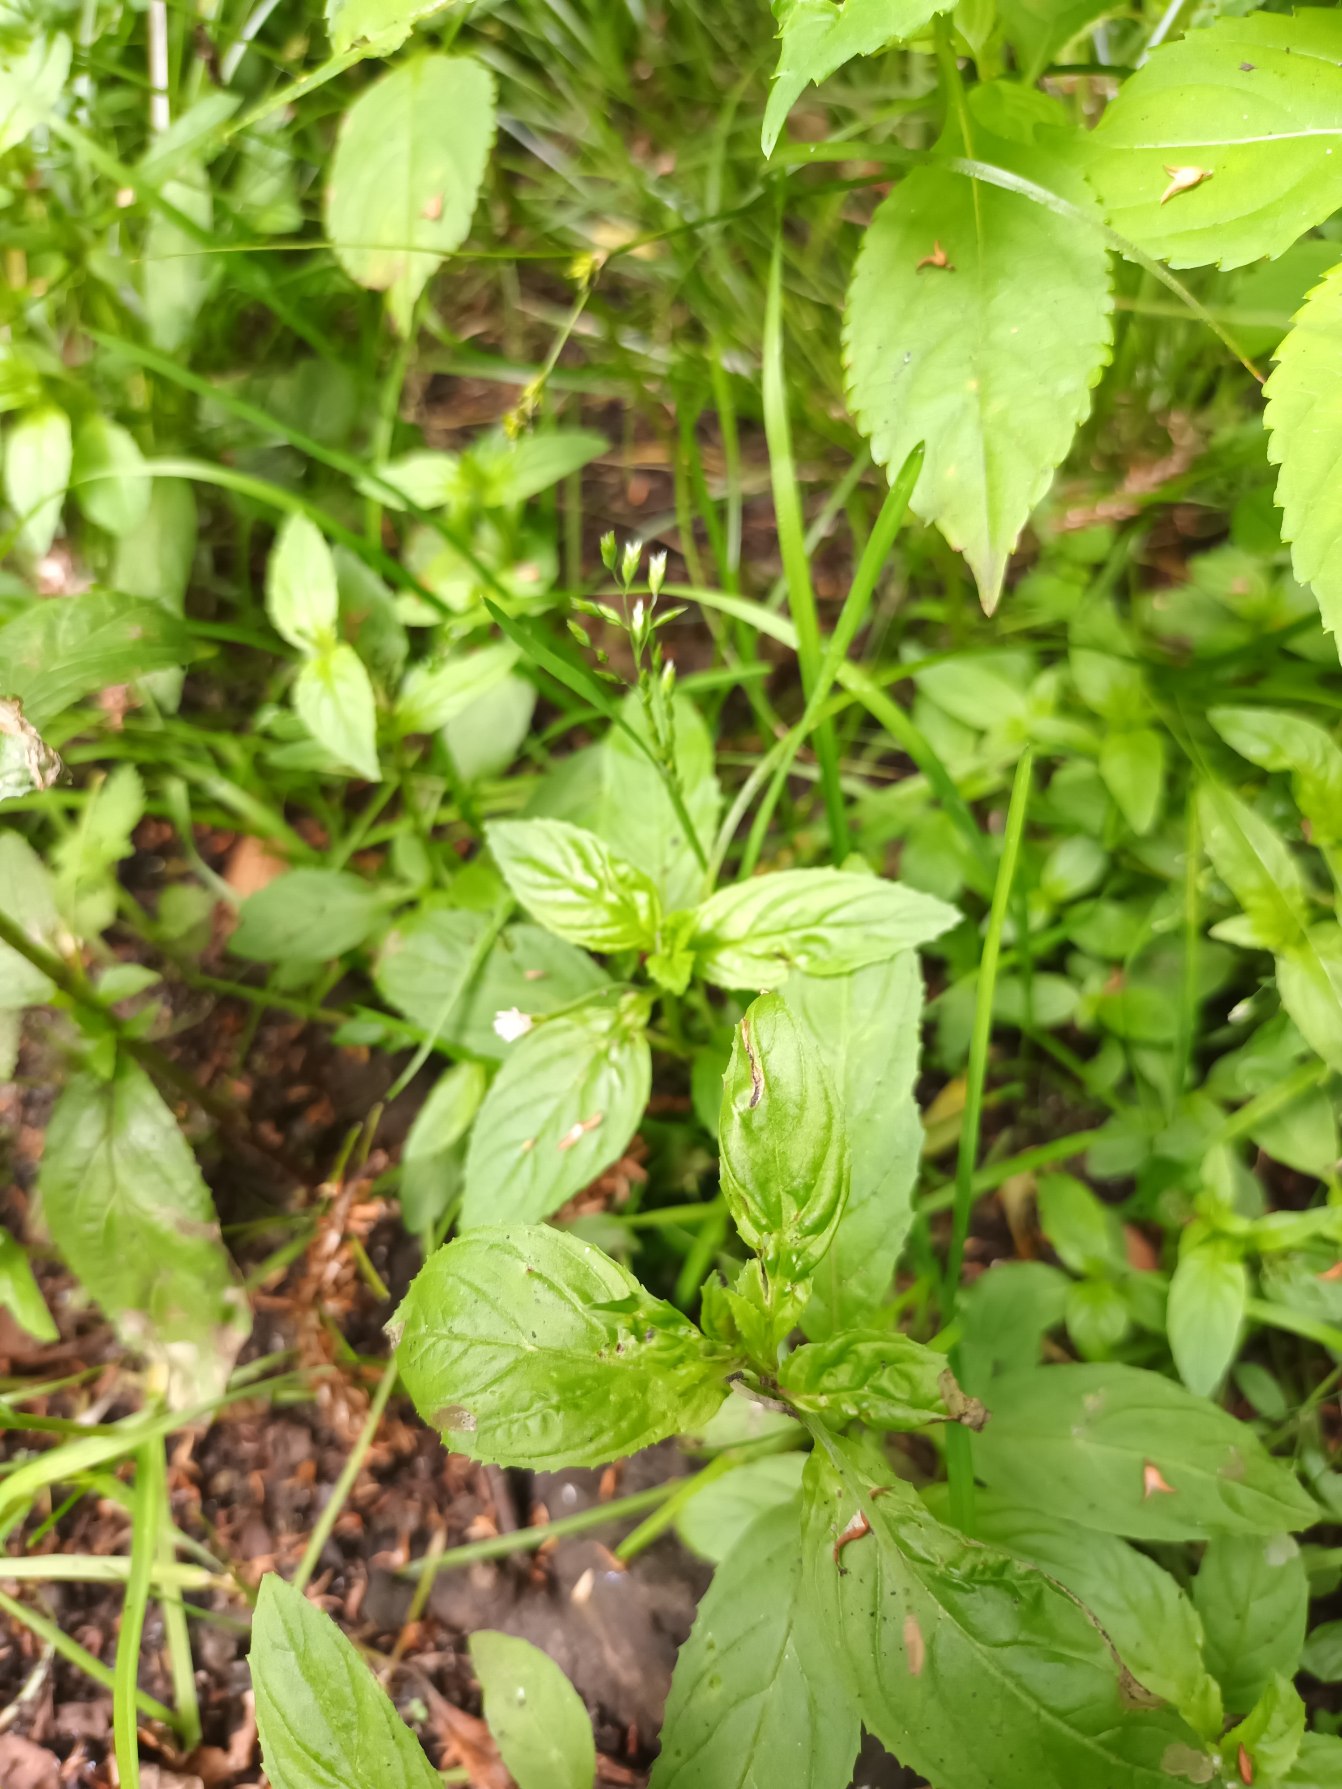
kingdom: Plantae
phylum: Tracheophyta
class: Magnoliopsida
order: Myrtales
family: Onagraceae
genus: Epilobium
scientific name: Epilobium roseum
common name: Rosen-dueurt
